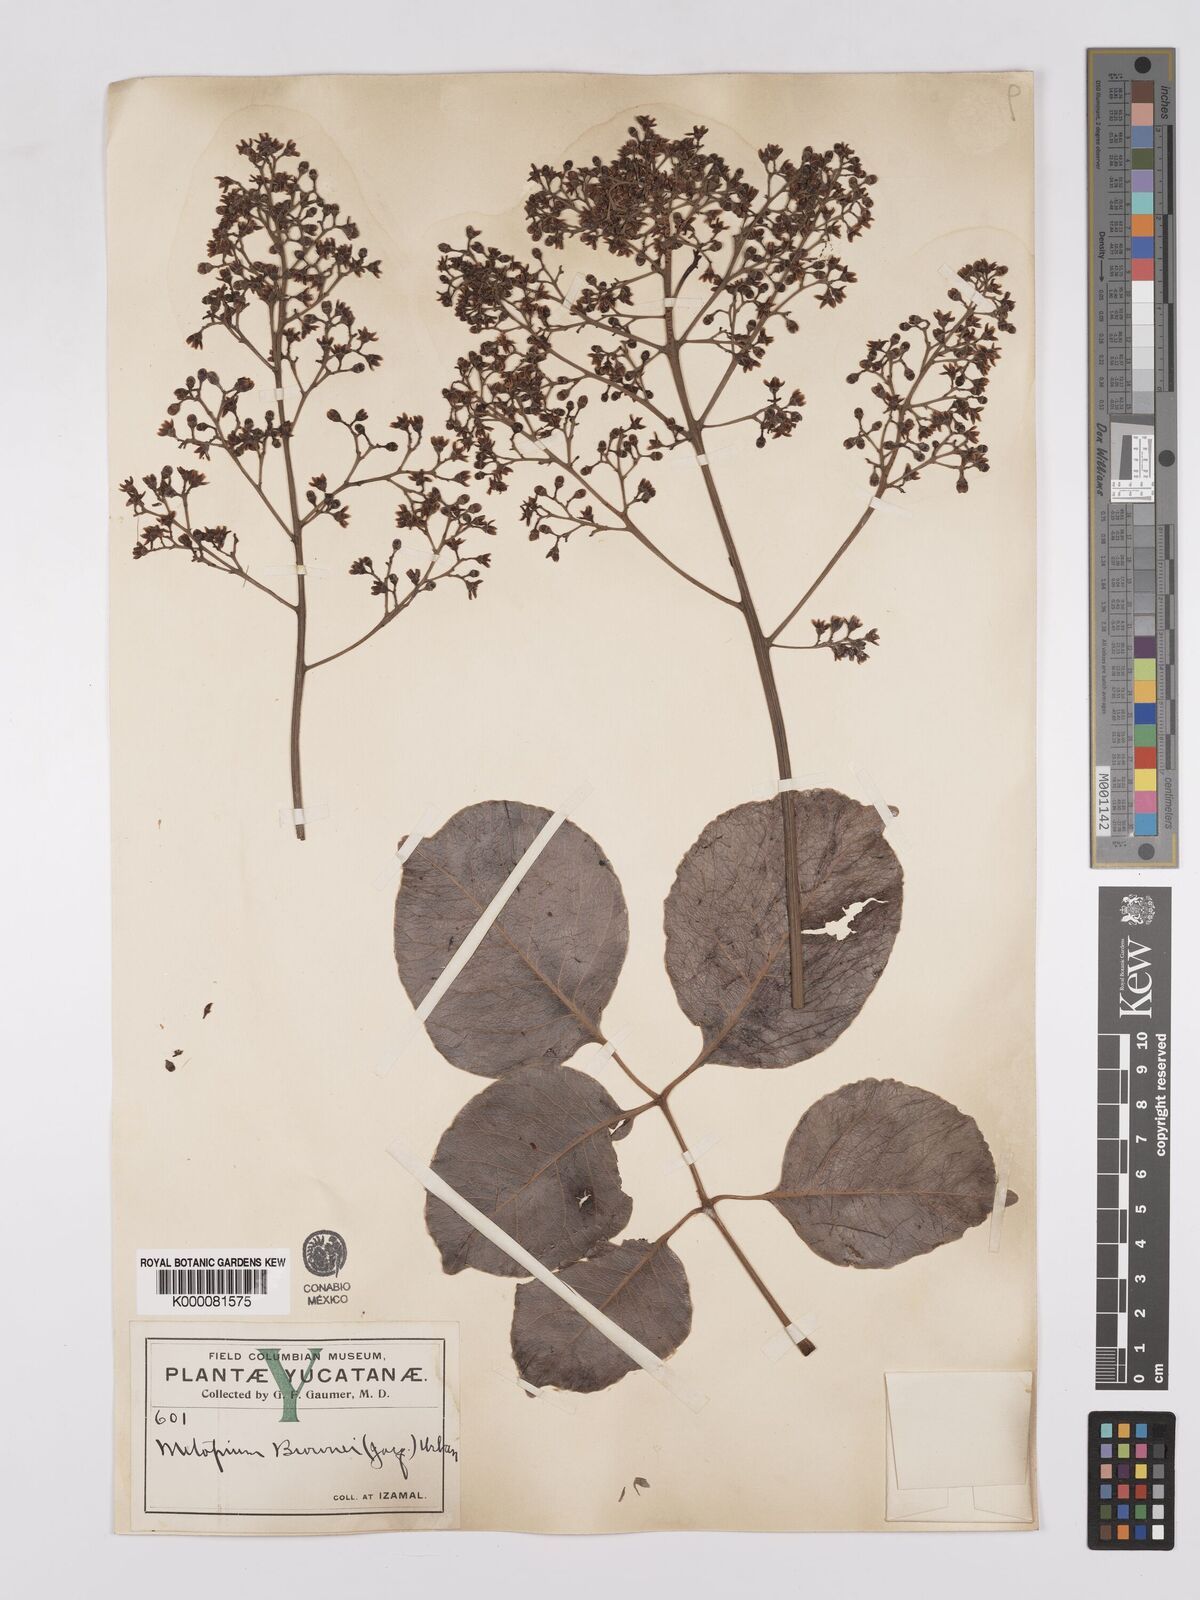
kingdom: Plantae
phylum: Tracheophyta
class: Magnoliopsida
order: Sapindales
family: Anacardiaceae
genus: Metopium
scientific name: Metopium brownei
